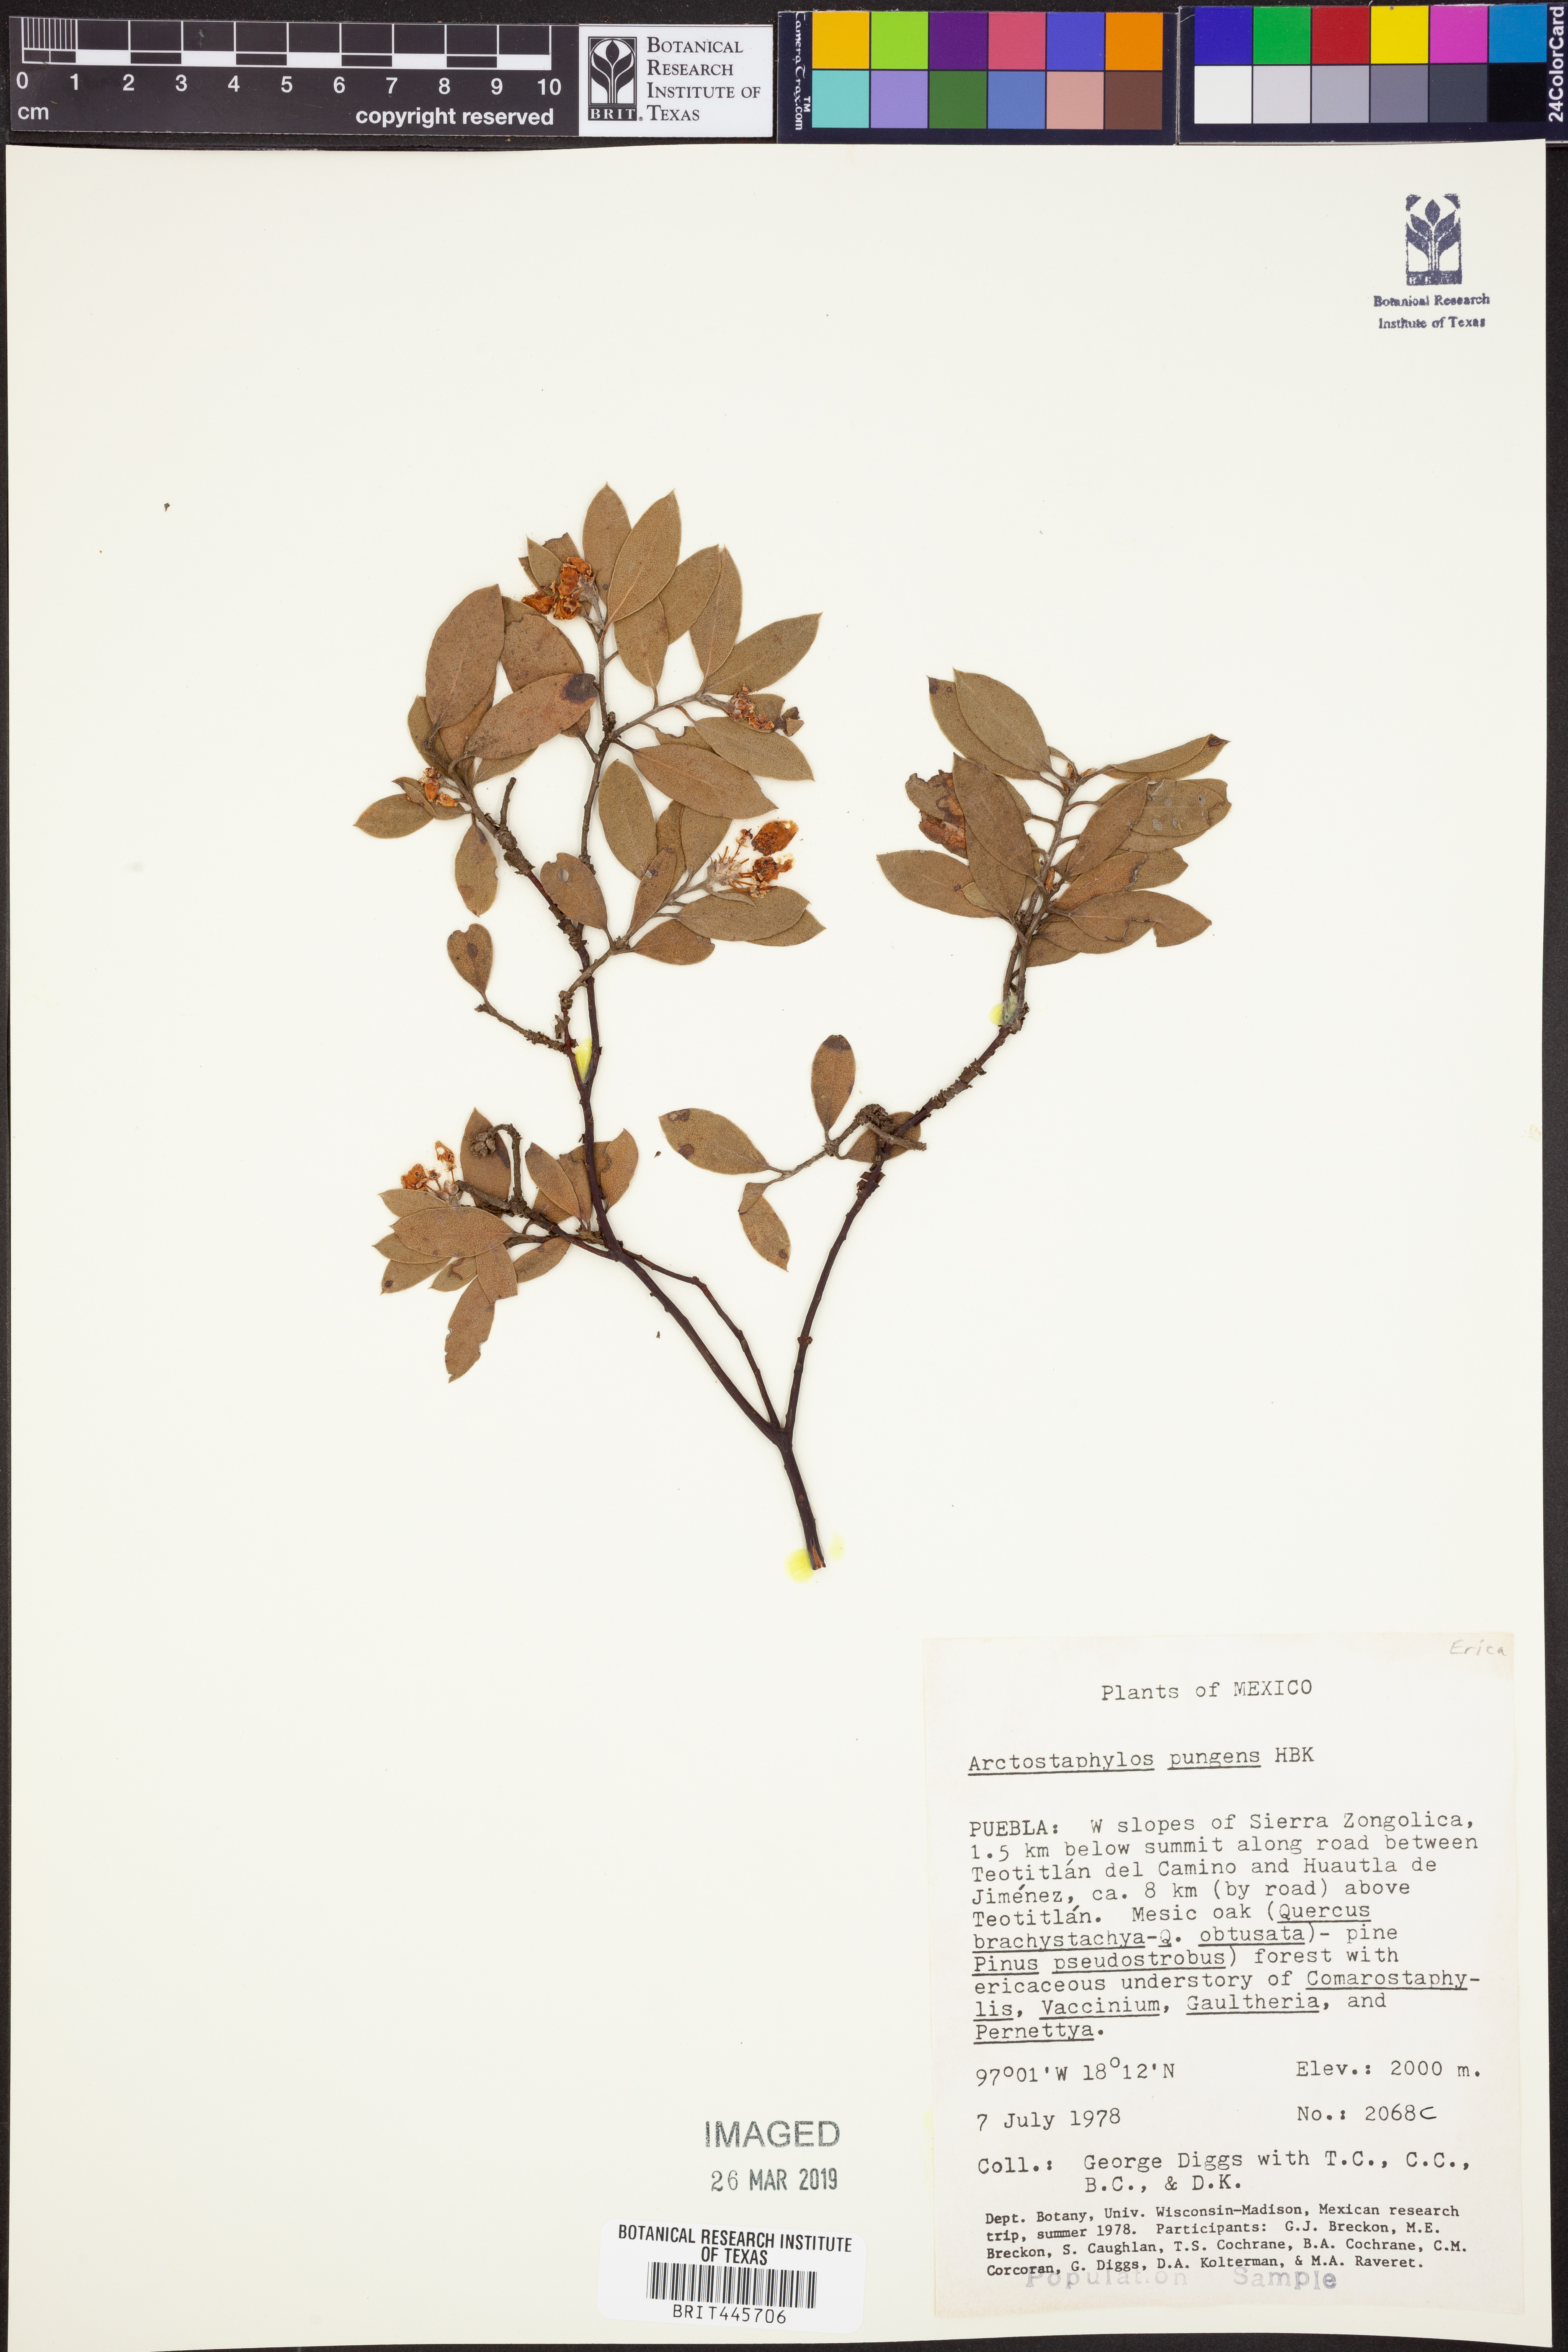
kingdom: Plantae
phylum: Tracheophyta
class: Magnoliopsida
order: Ericales
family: Ericaceae
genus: Arctostaphylos
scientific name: Arctostaphylos pungens
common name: Mexican manzanita
